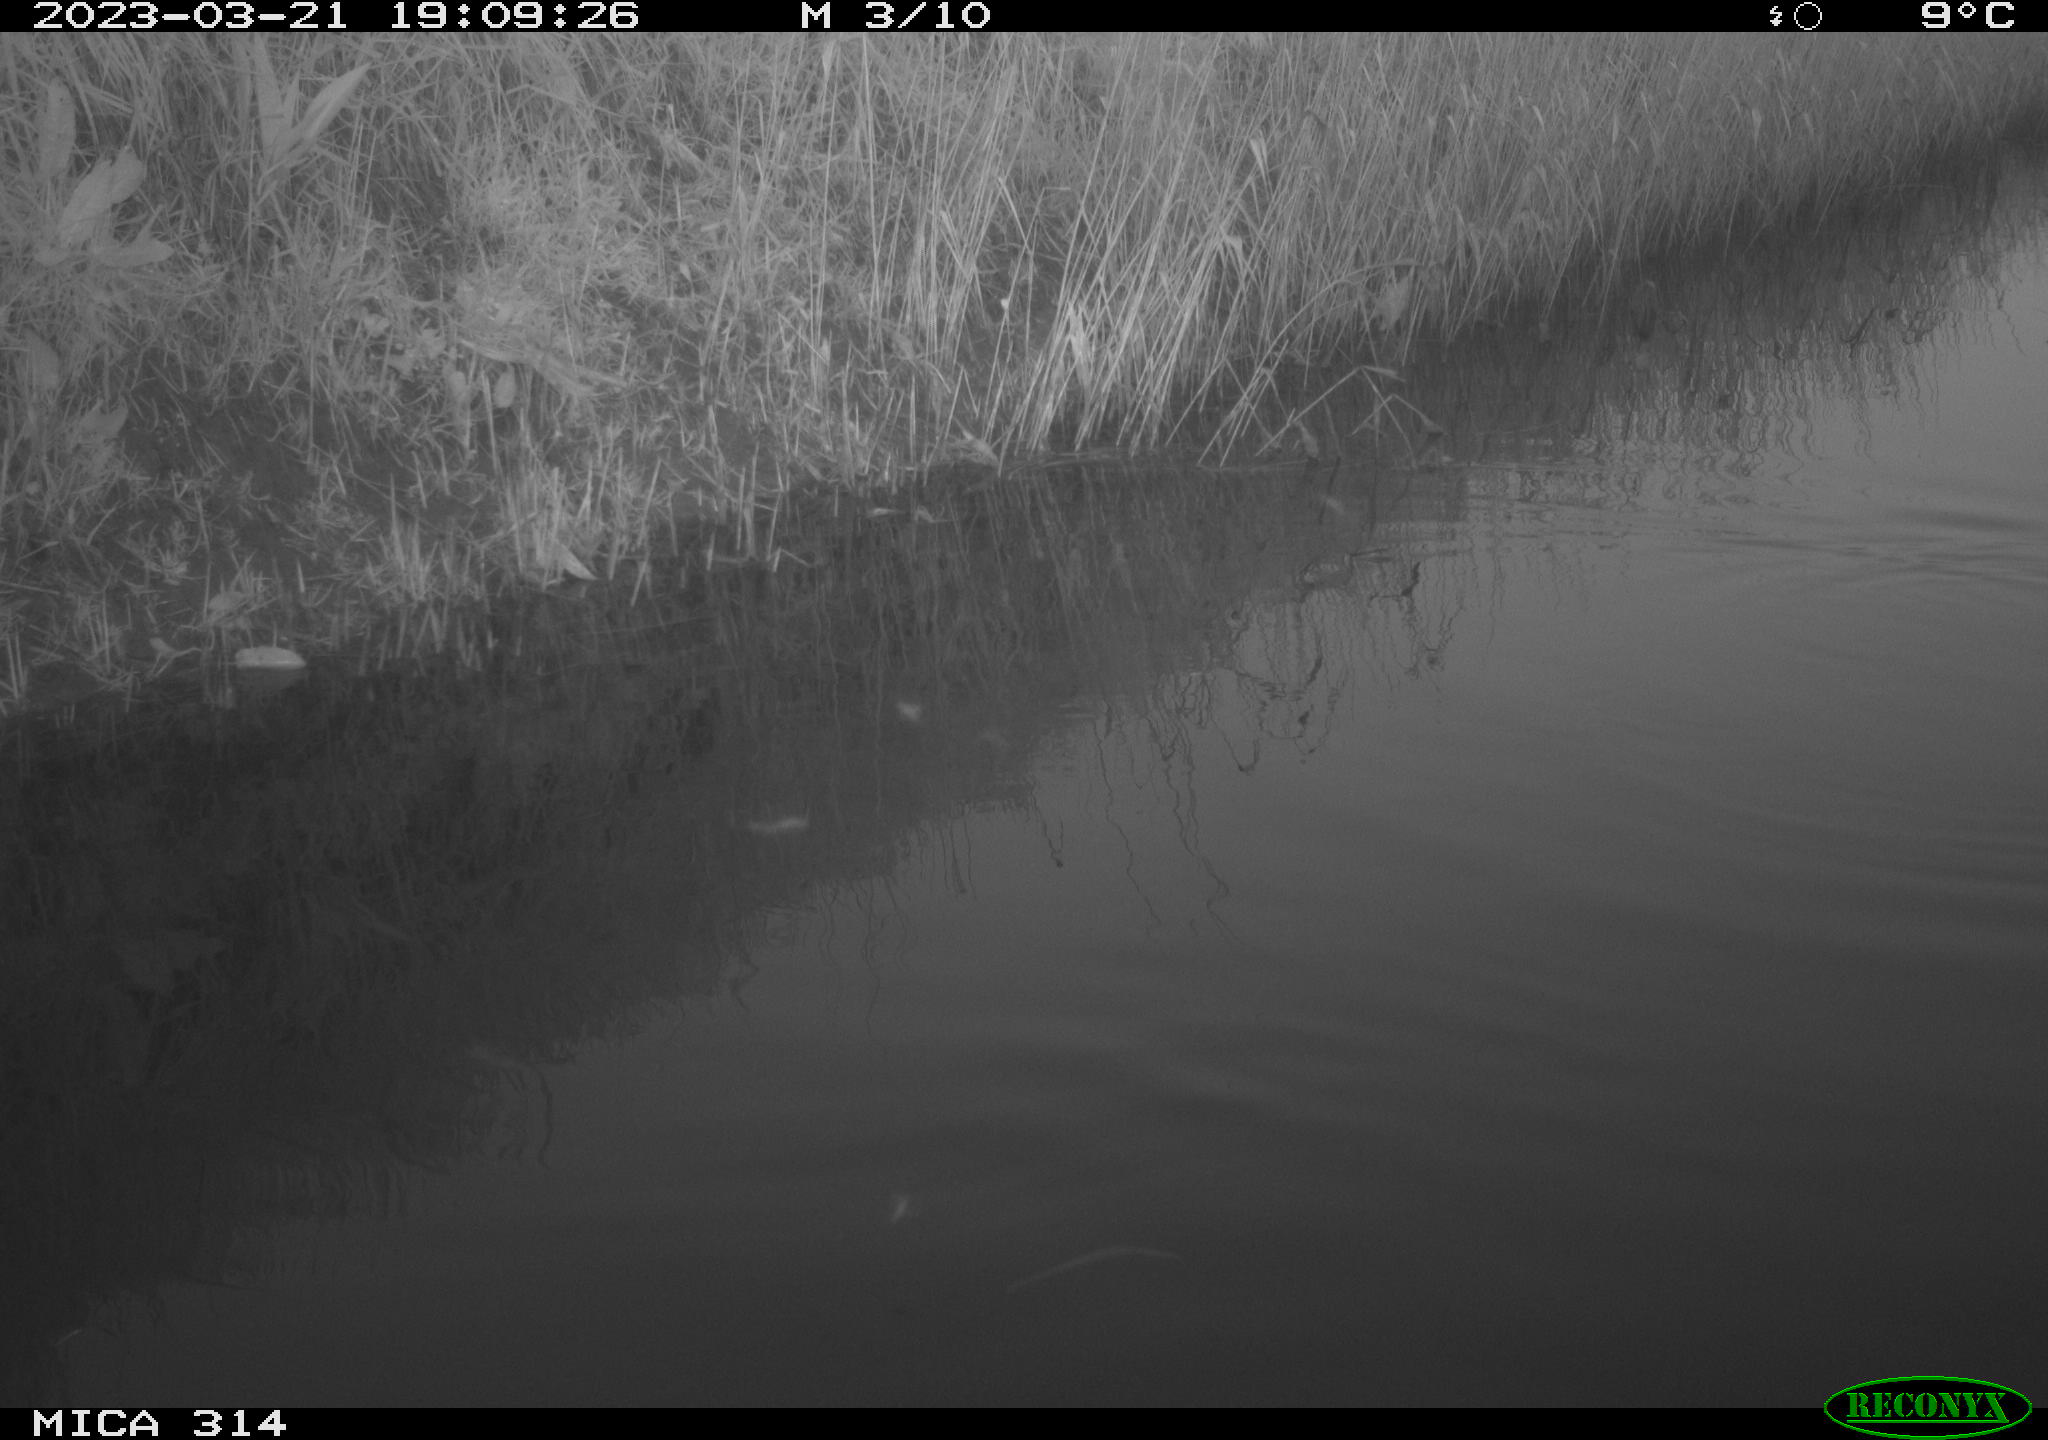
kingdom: Animalia
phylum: Chordata
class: Aves
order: Gruiformes
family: Rallidae
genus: Gallinula
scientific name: Gallinula chloropus
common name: Common moorhen
